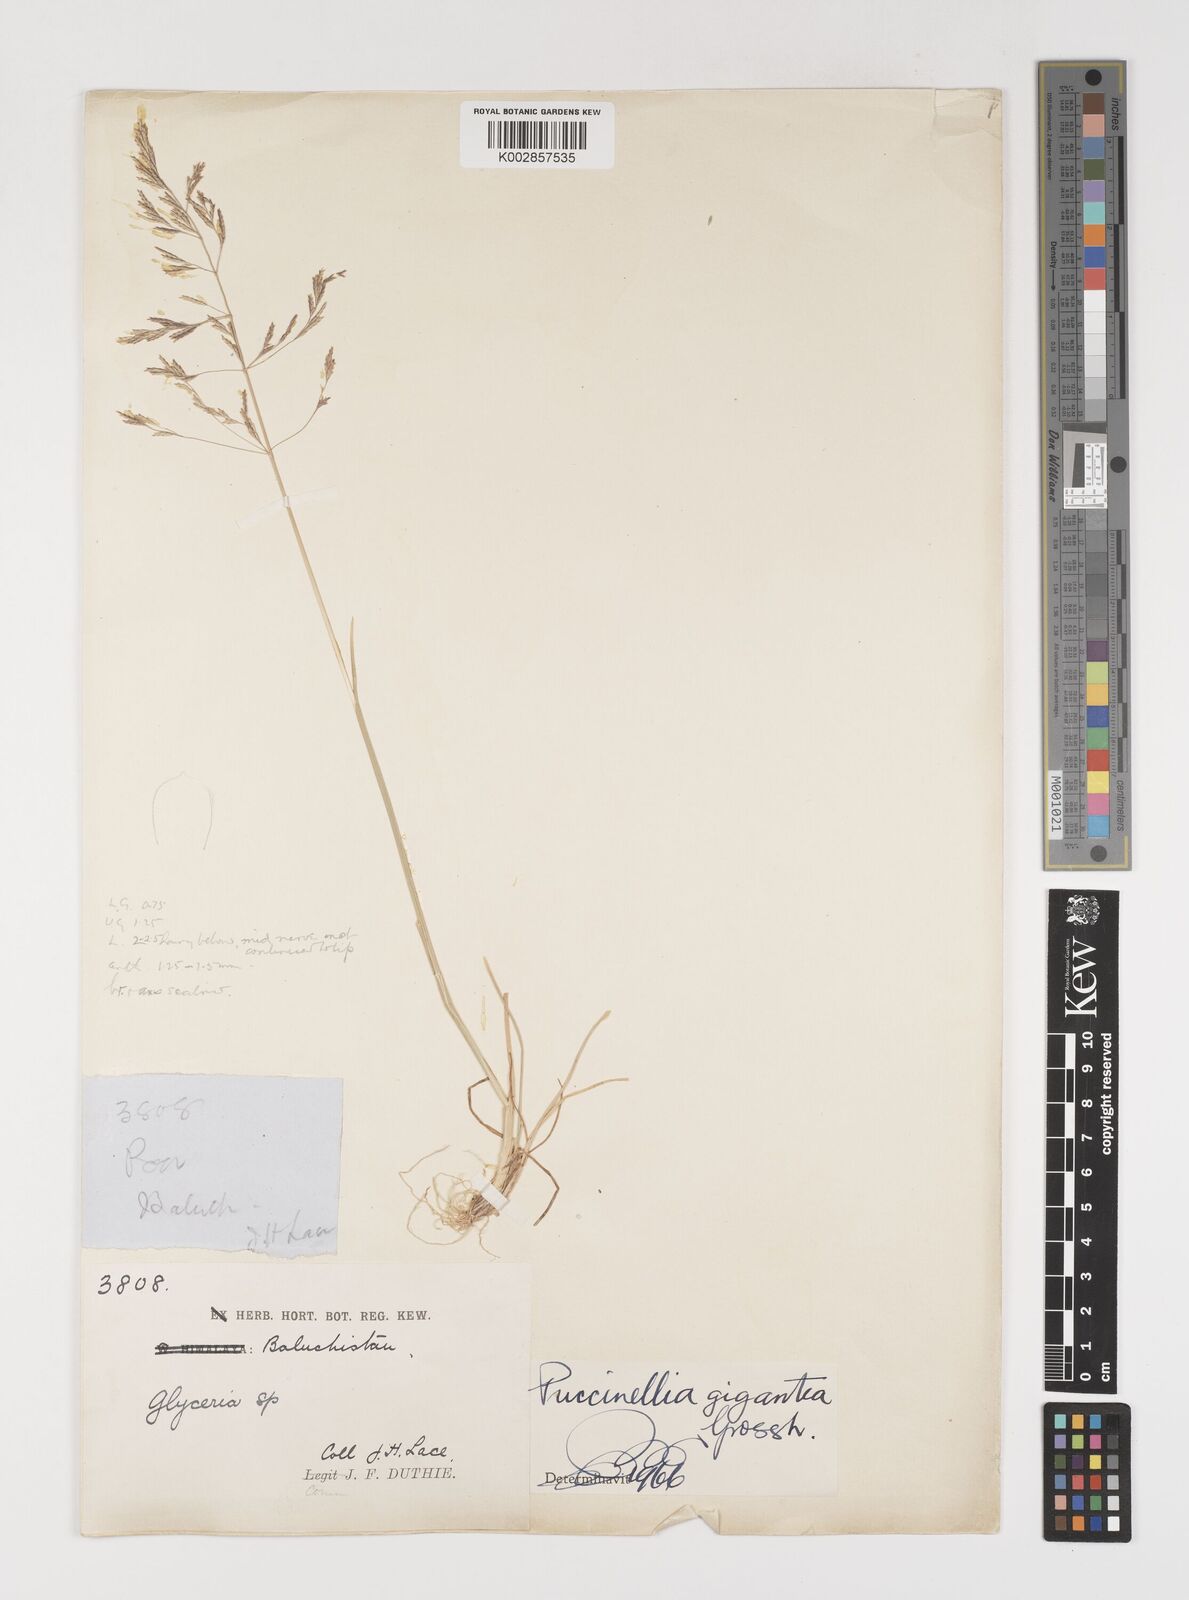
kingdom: Plantae
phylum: Tracheophyta
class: Liliopsida
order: Poales
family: Poaceae
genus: Puccinellia
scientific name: Puccinellia gigantea
